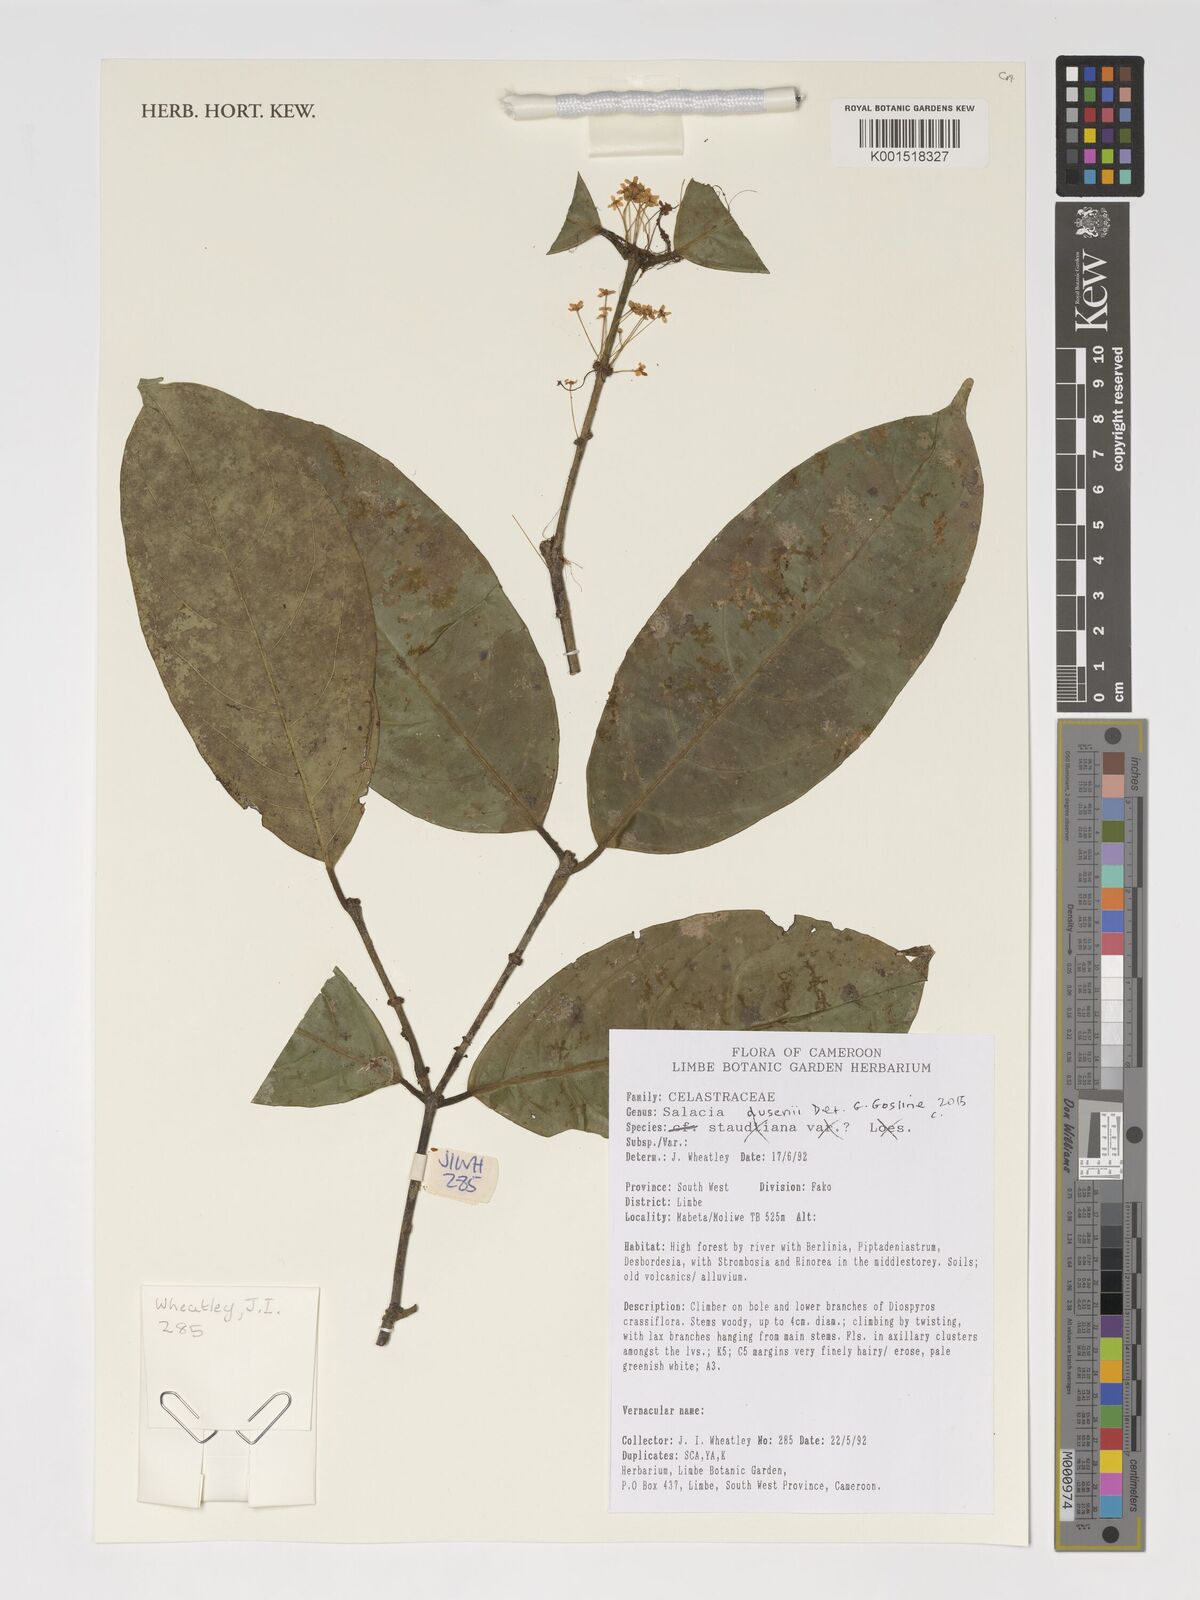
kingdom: Plantae
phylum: Tracheophyta
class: Magnoliopsida
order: Celastrales
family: Celastraceae
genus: Salacia
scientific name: Salacia dusenii
